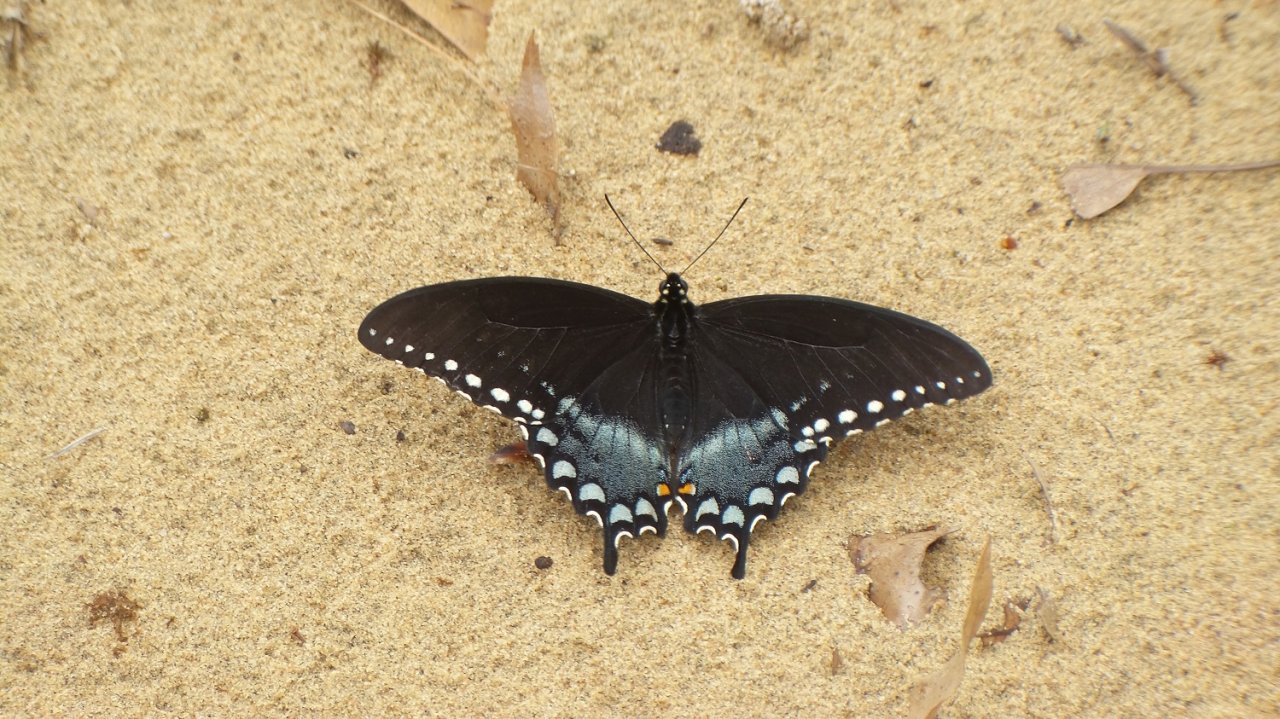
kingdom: Animalia
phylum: Arthropoda
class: Insecta
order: Lepidoptera
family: Papilionidae
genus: Pterourus
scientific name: Pterourus troilus
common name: Spicebush Swallowtail
